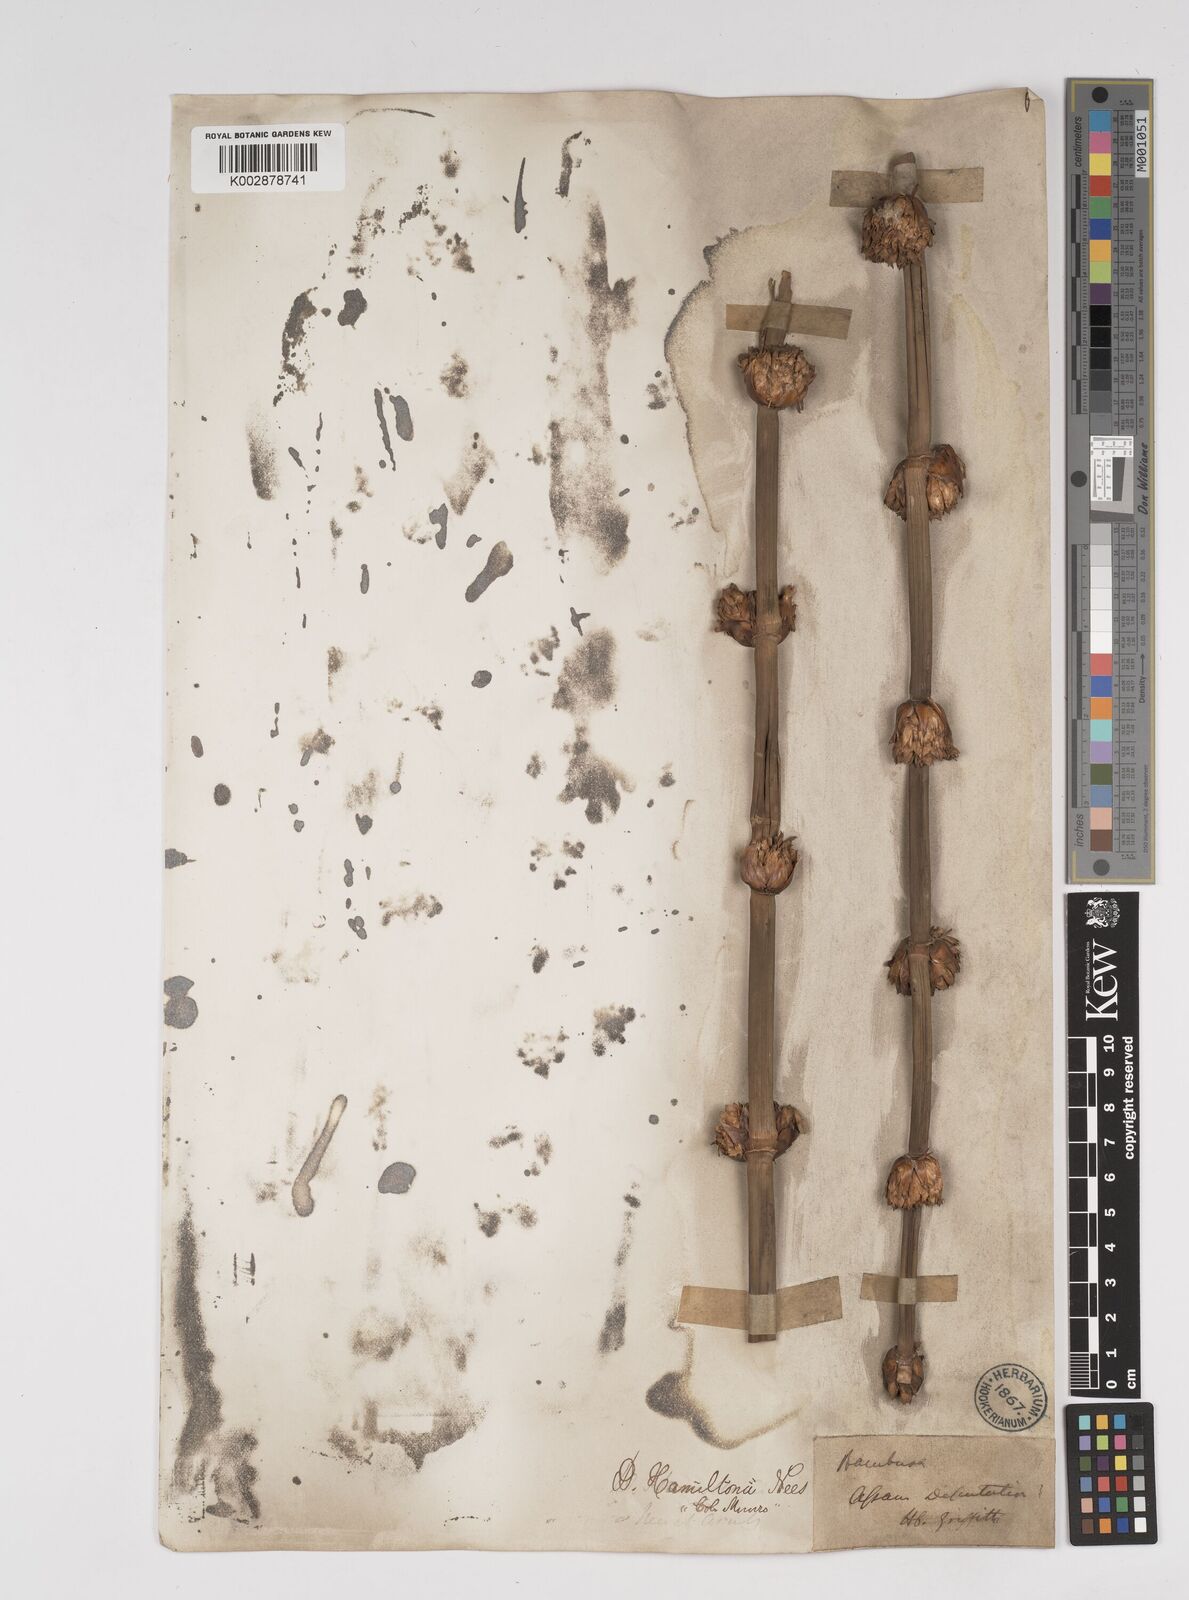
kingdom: Plantae
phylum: Tracheophyta
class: Liliopsida
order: Poales
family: Poaceae
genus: Dendrocalamus
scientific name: Dendrocalamus hamiltonii
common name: Tama bamboo
